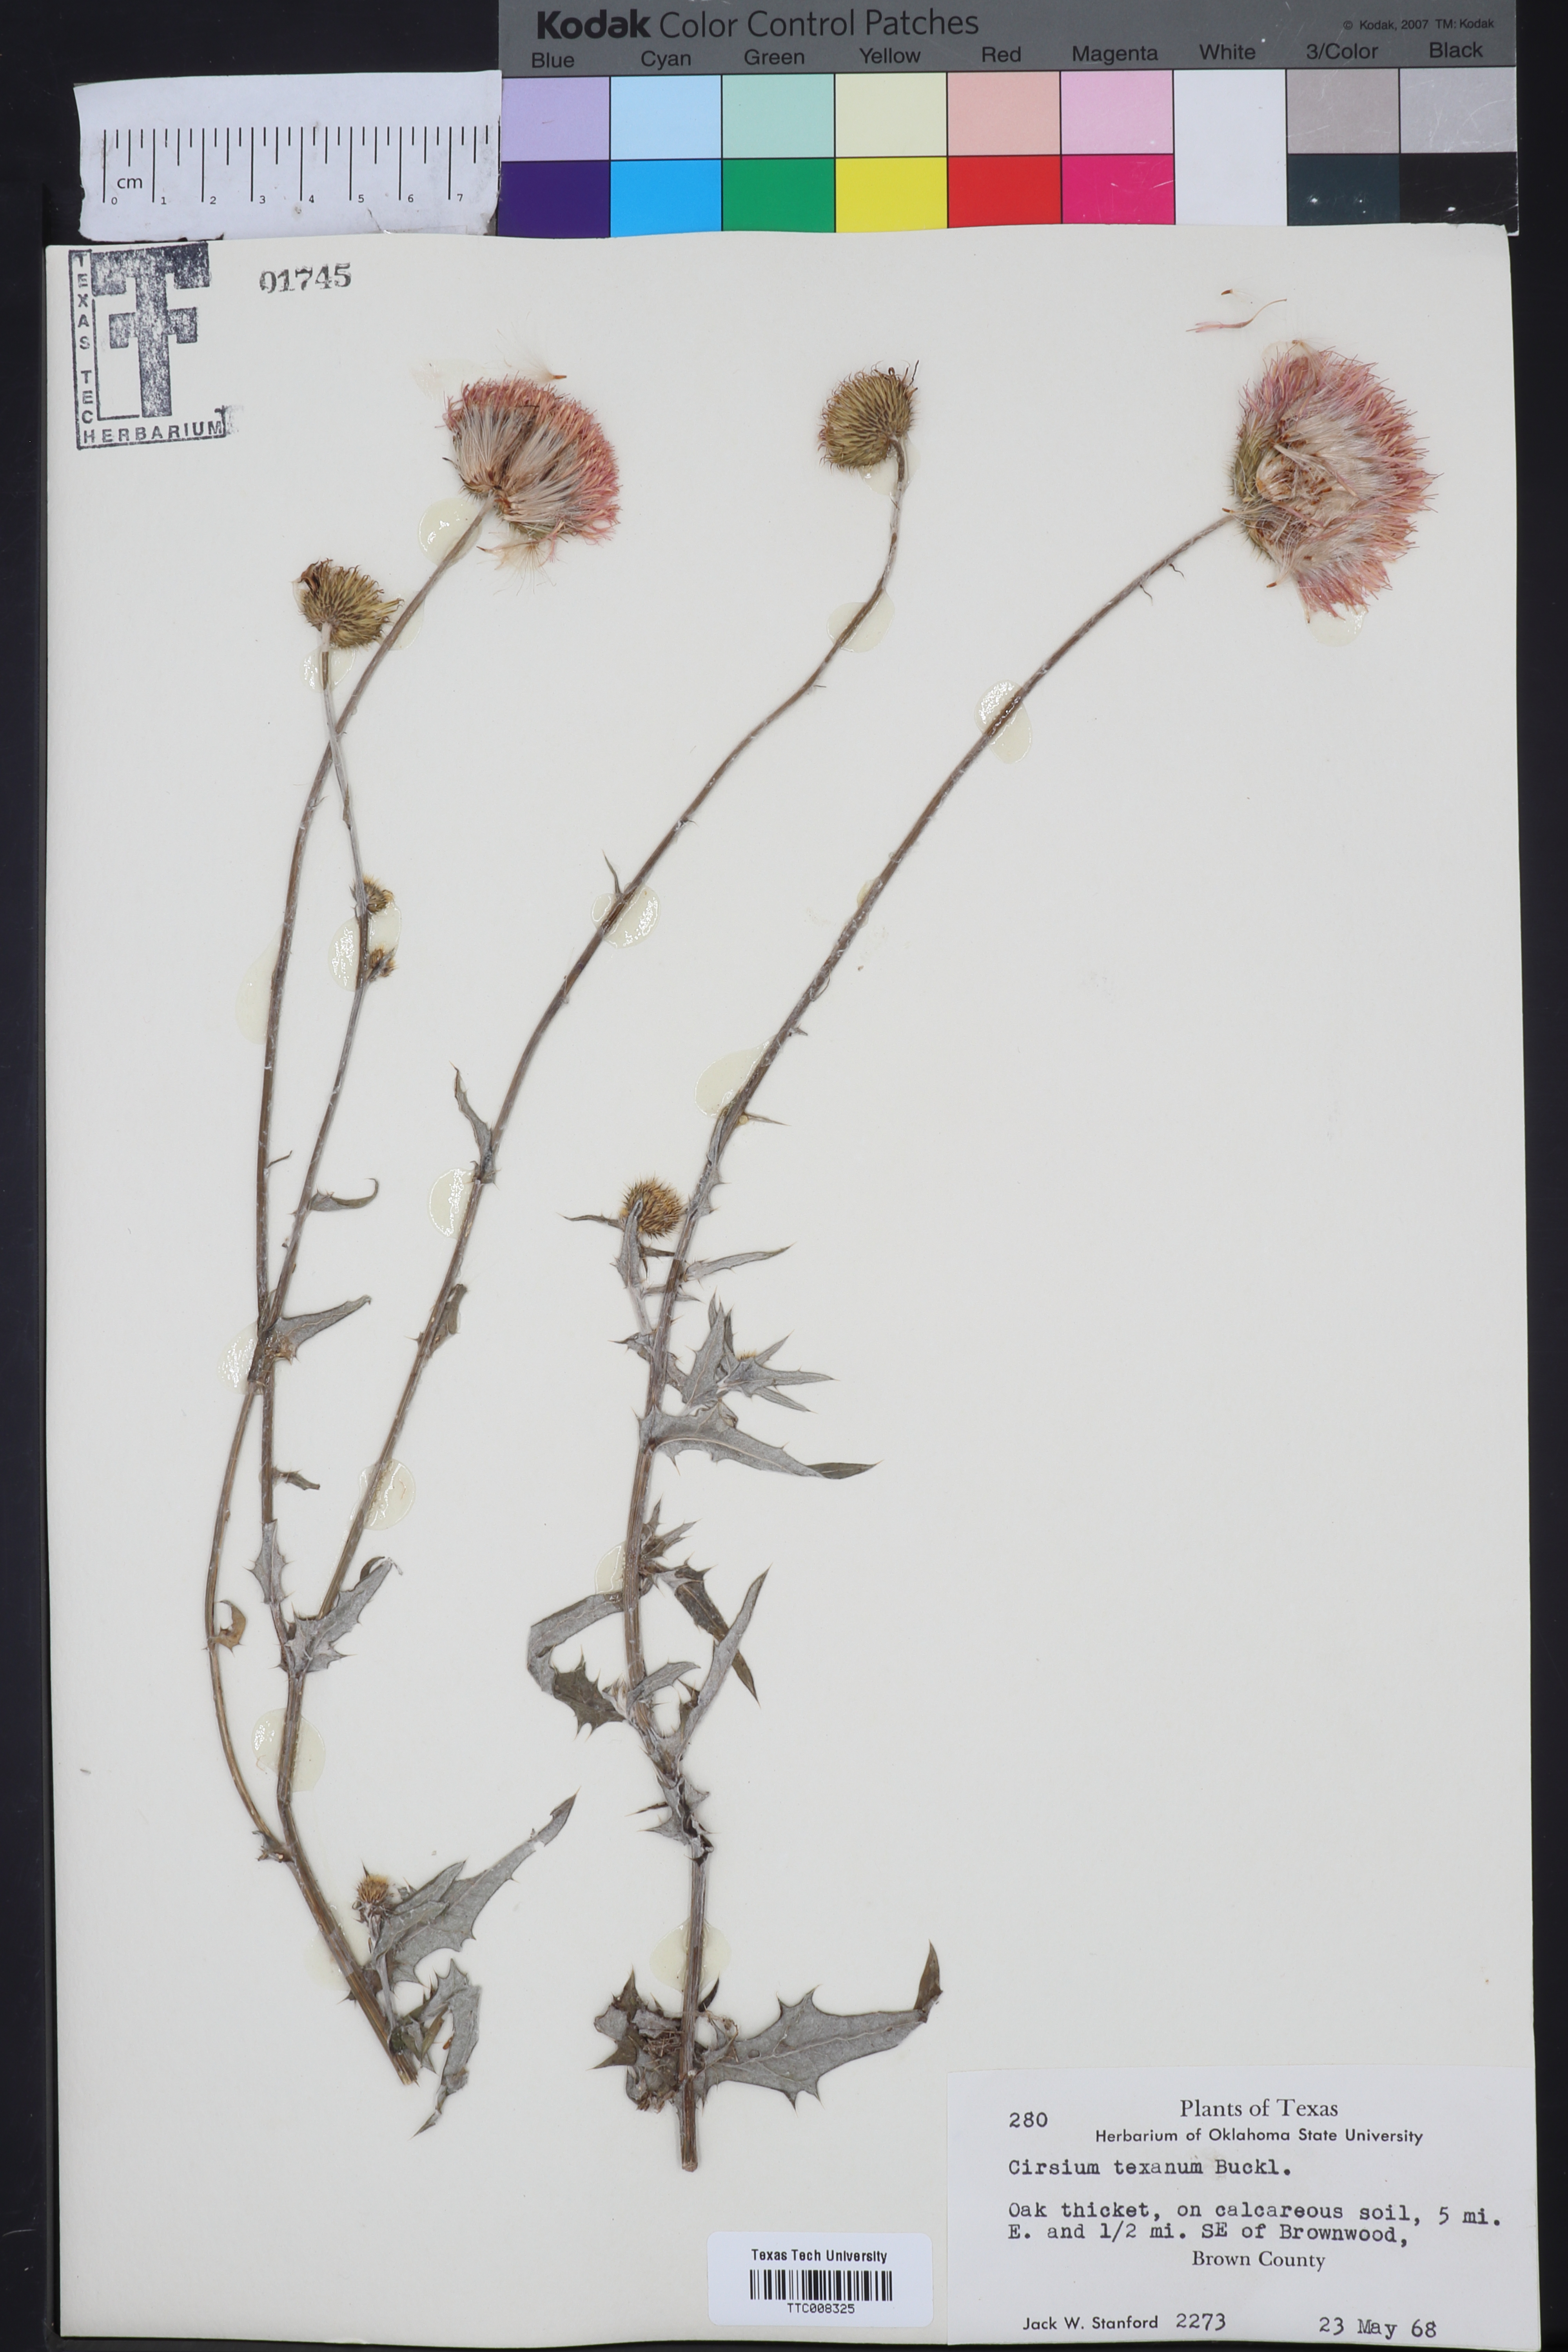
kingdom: Plantae
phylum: Tracheophyta
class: Magnoliopsida
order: Asterales
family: Asteraceae
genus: Cirsium
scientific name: Cirsium texanum
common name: Texas purple thistle
